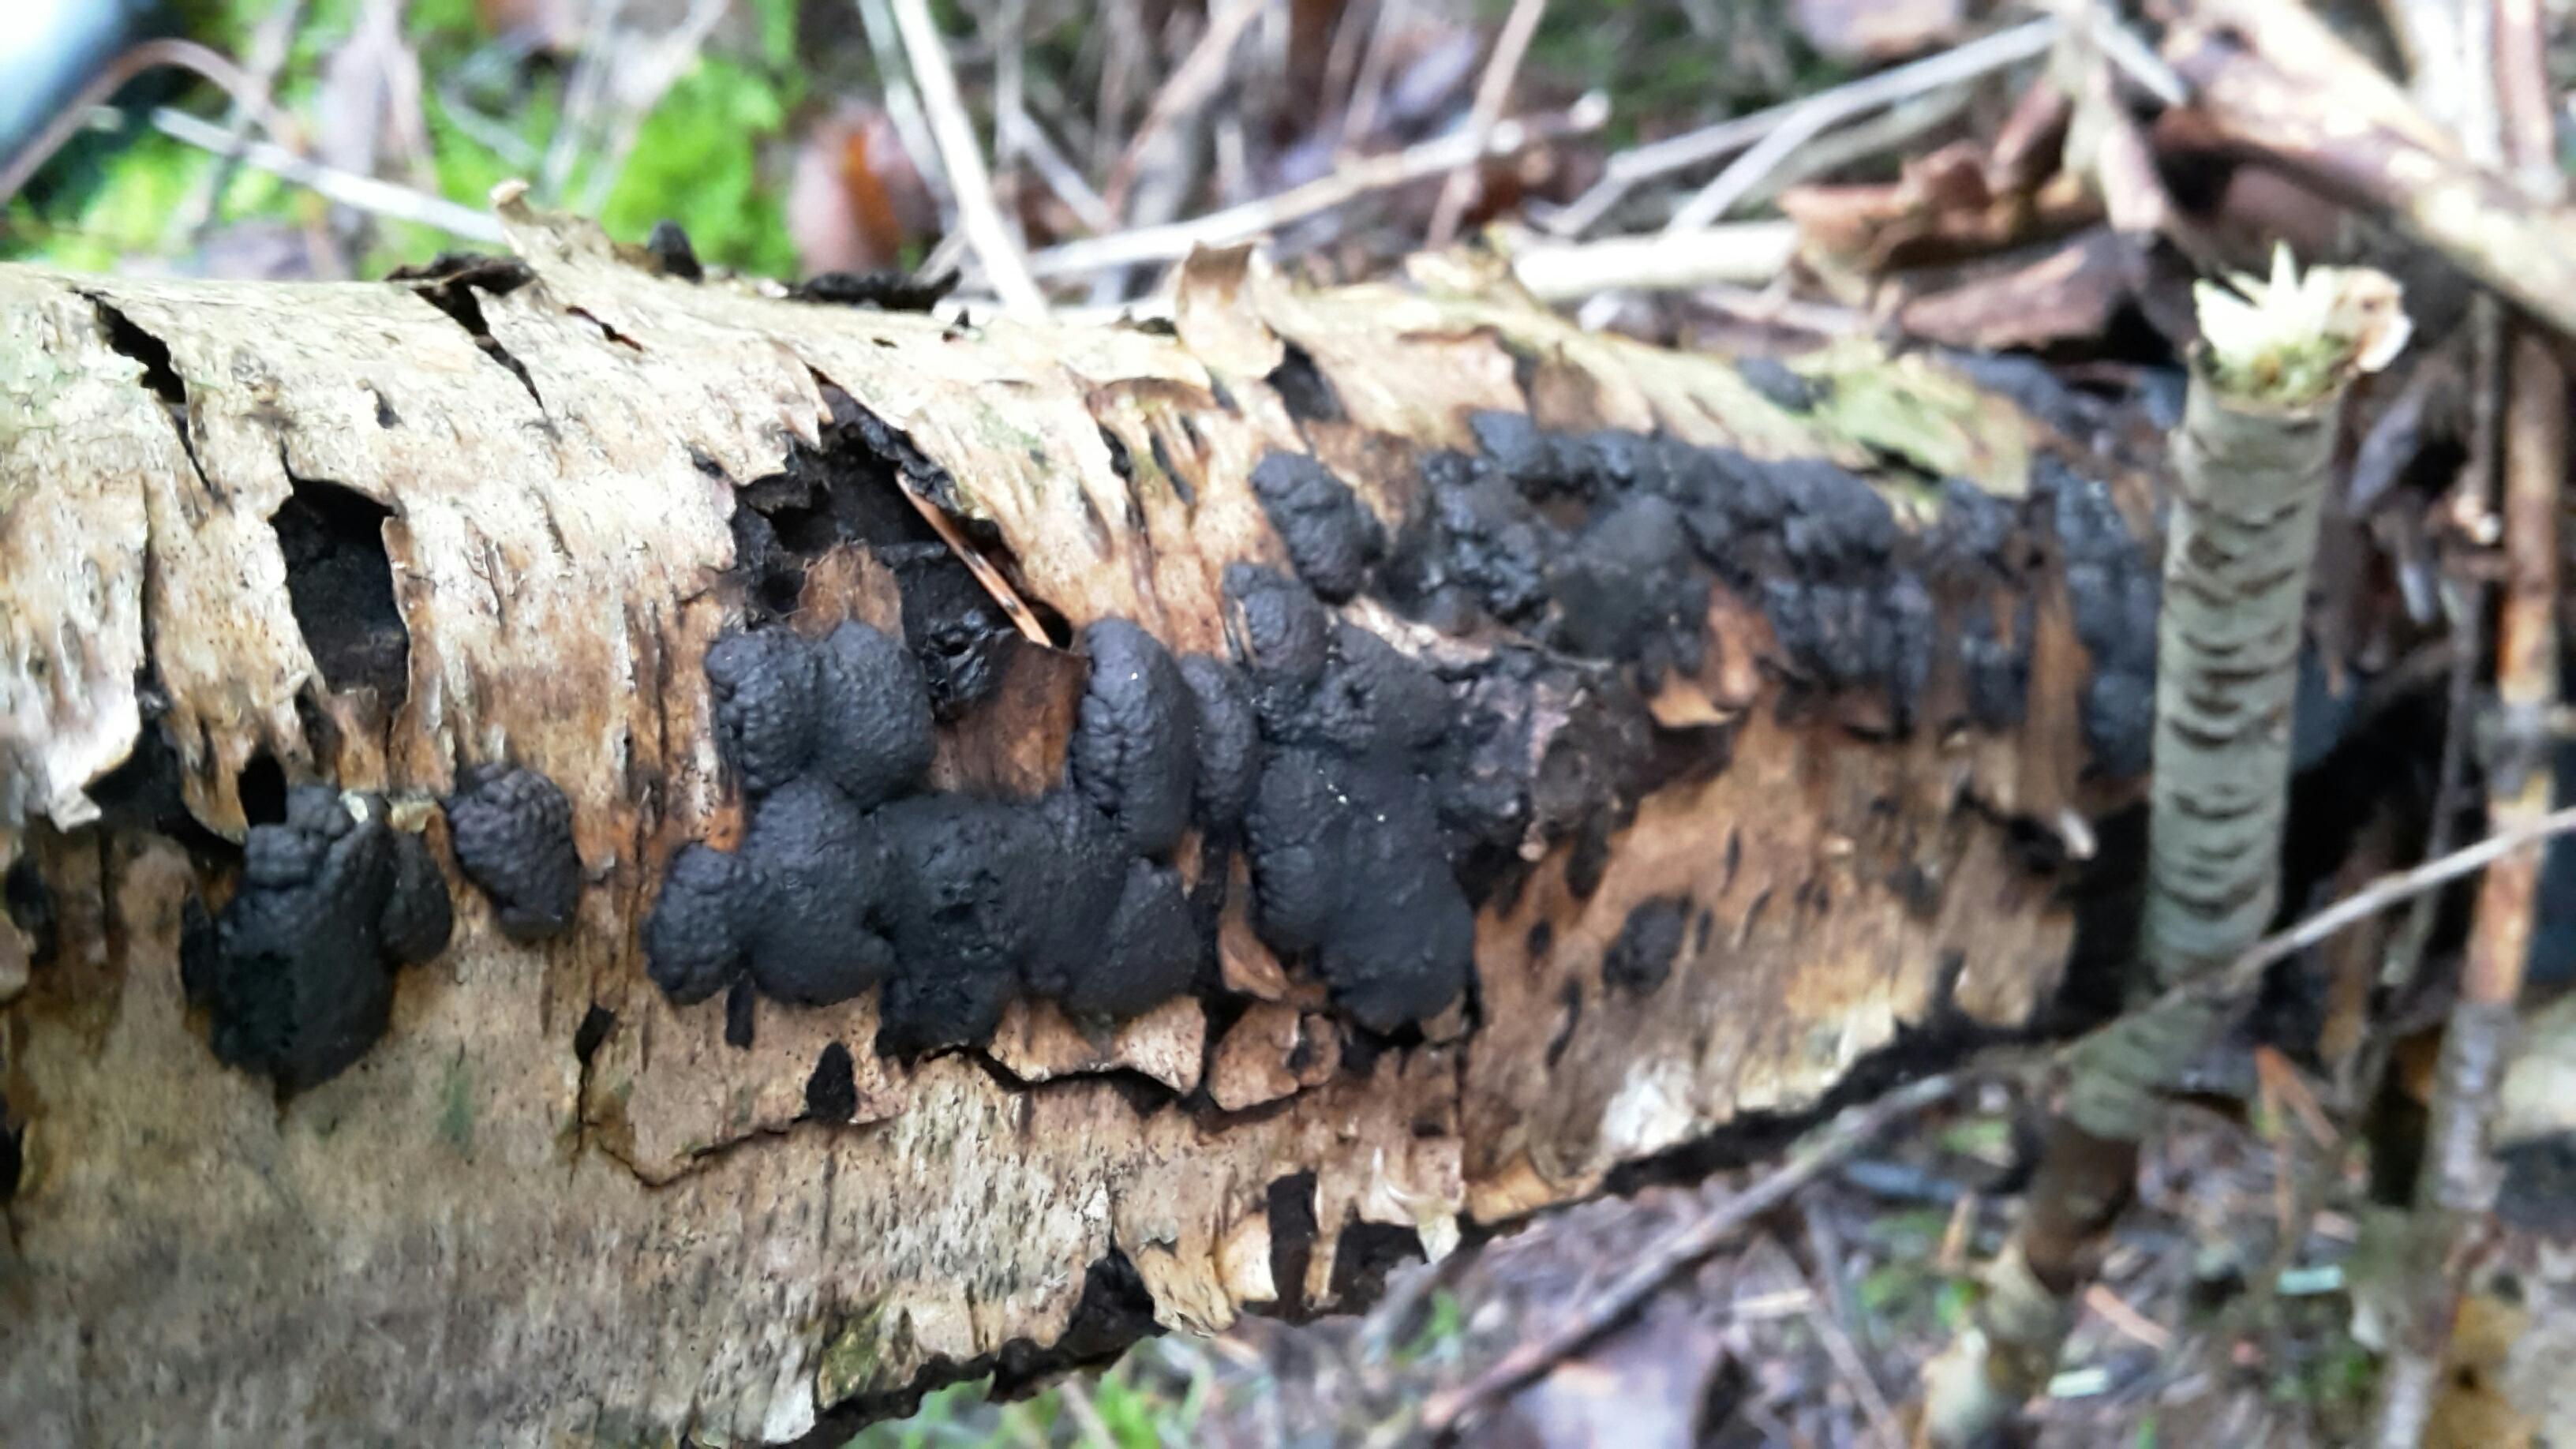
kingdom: Fungi
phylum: Ascomycota
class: Sordariomycetes
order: Xylariales
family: Hypoxylaceae
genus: Jackrogersella
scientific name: Jackrogersella multiformis
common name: foranderlig kulbær
